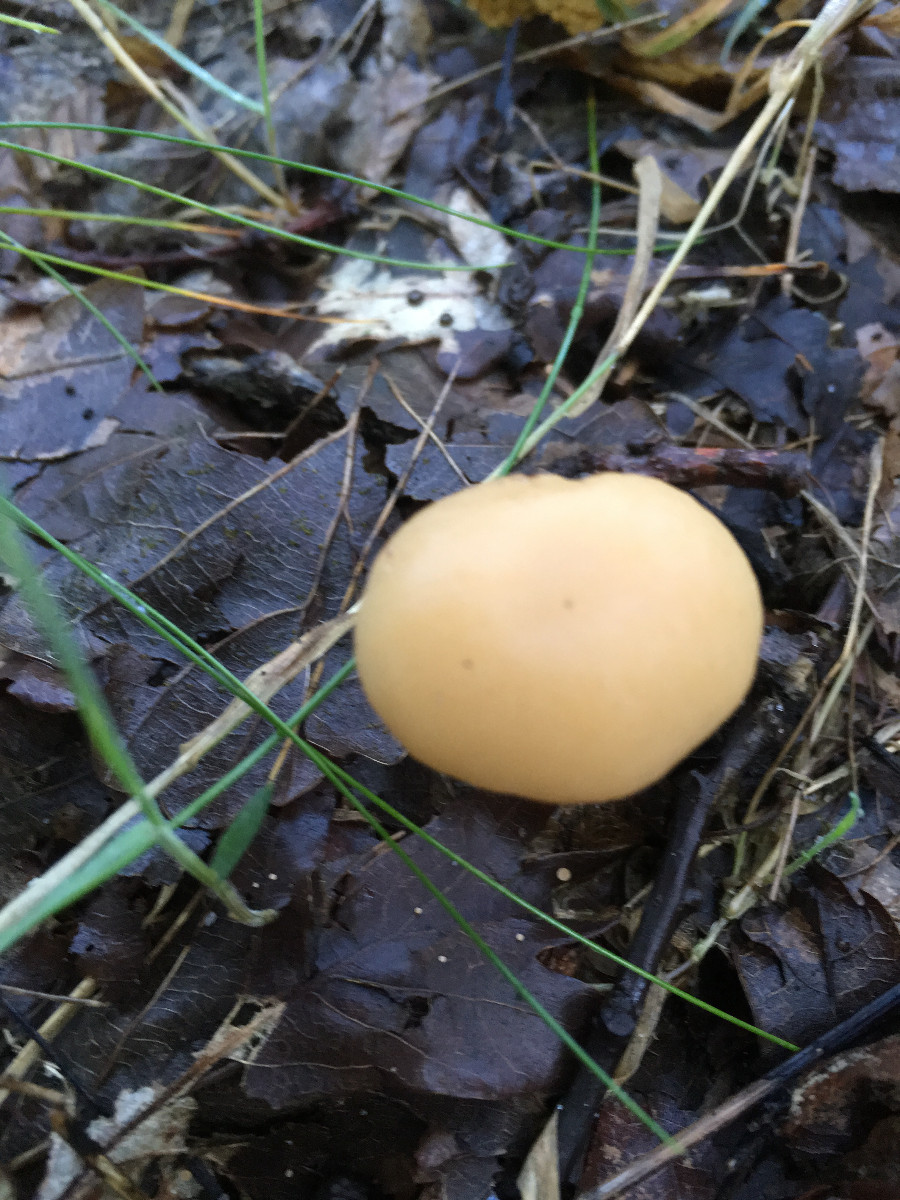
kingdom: Fungi
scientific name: Fungi
